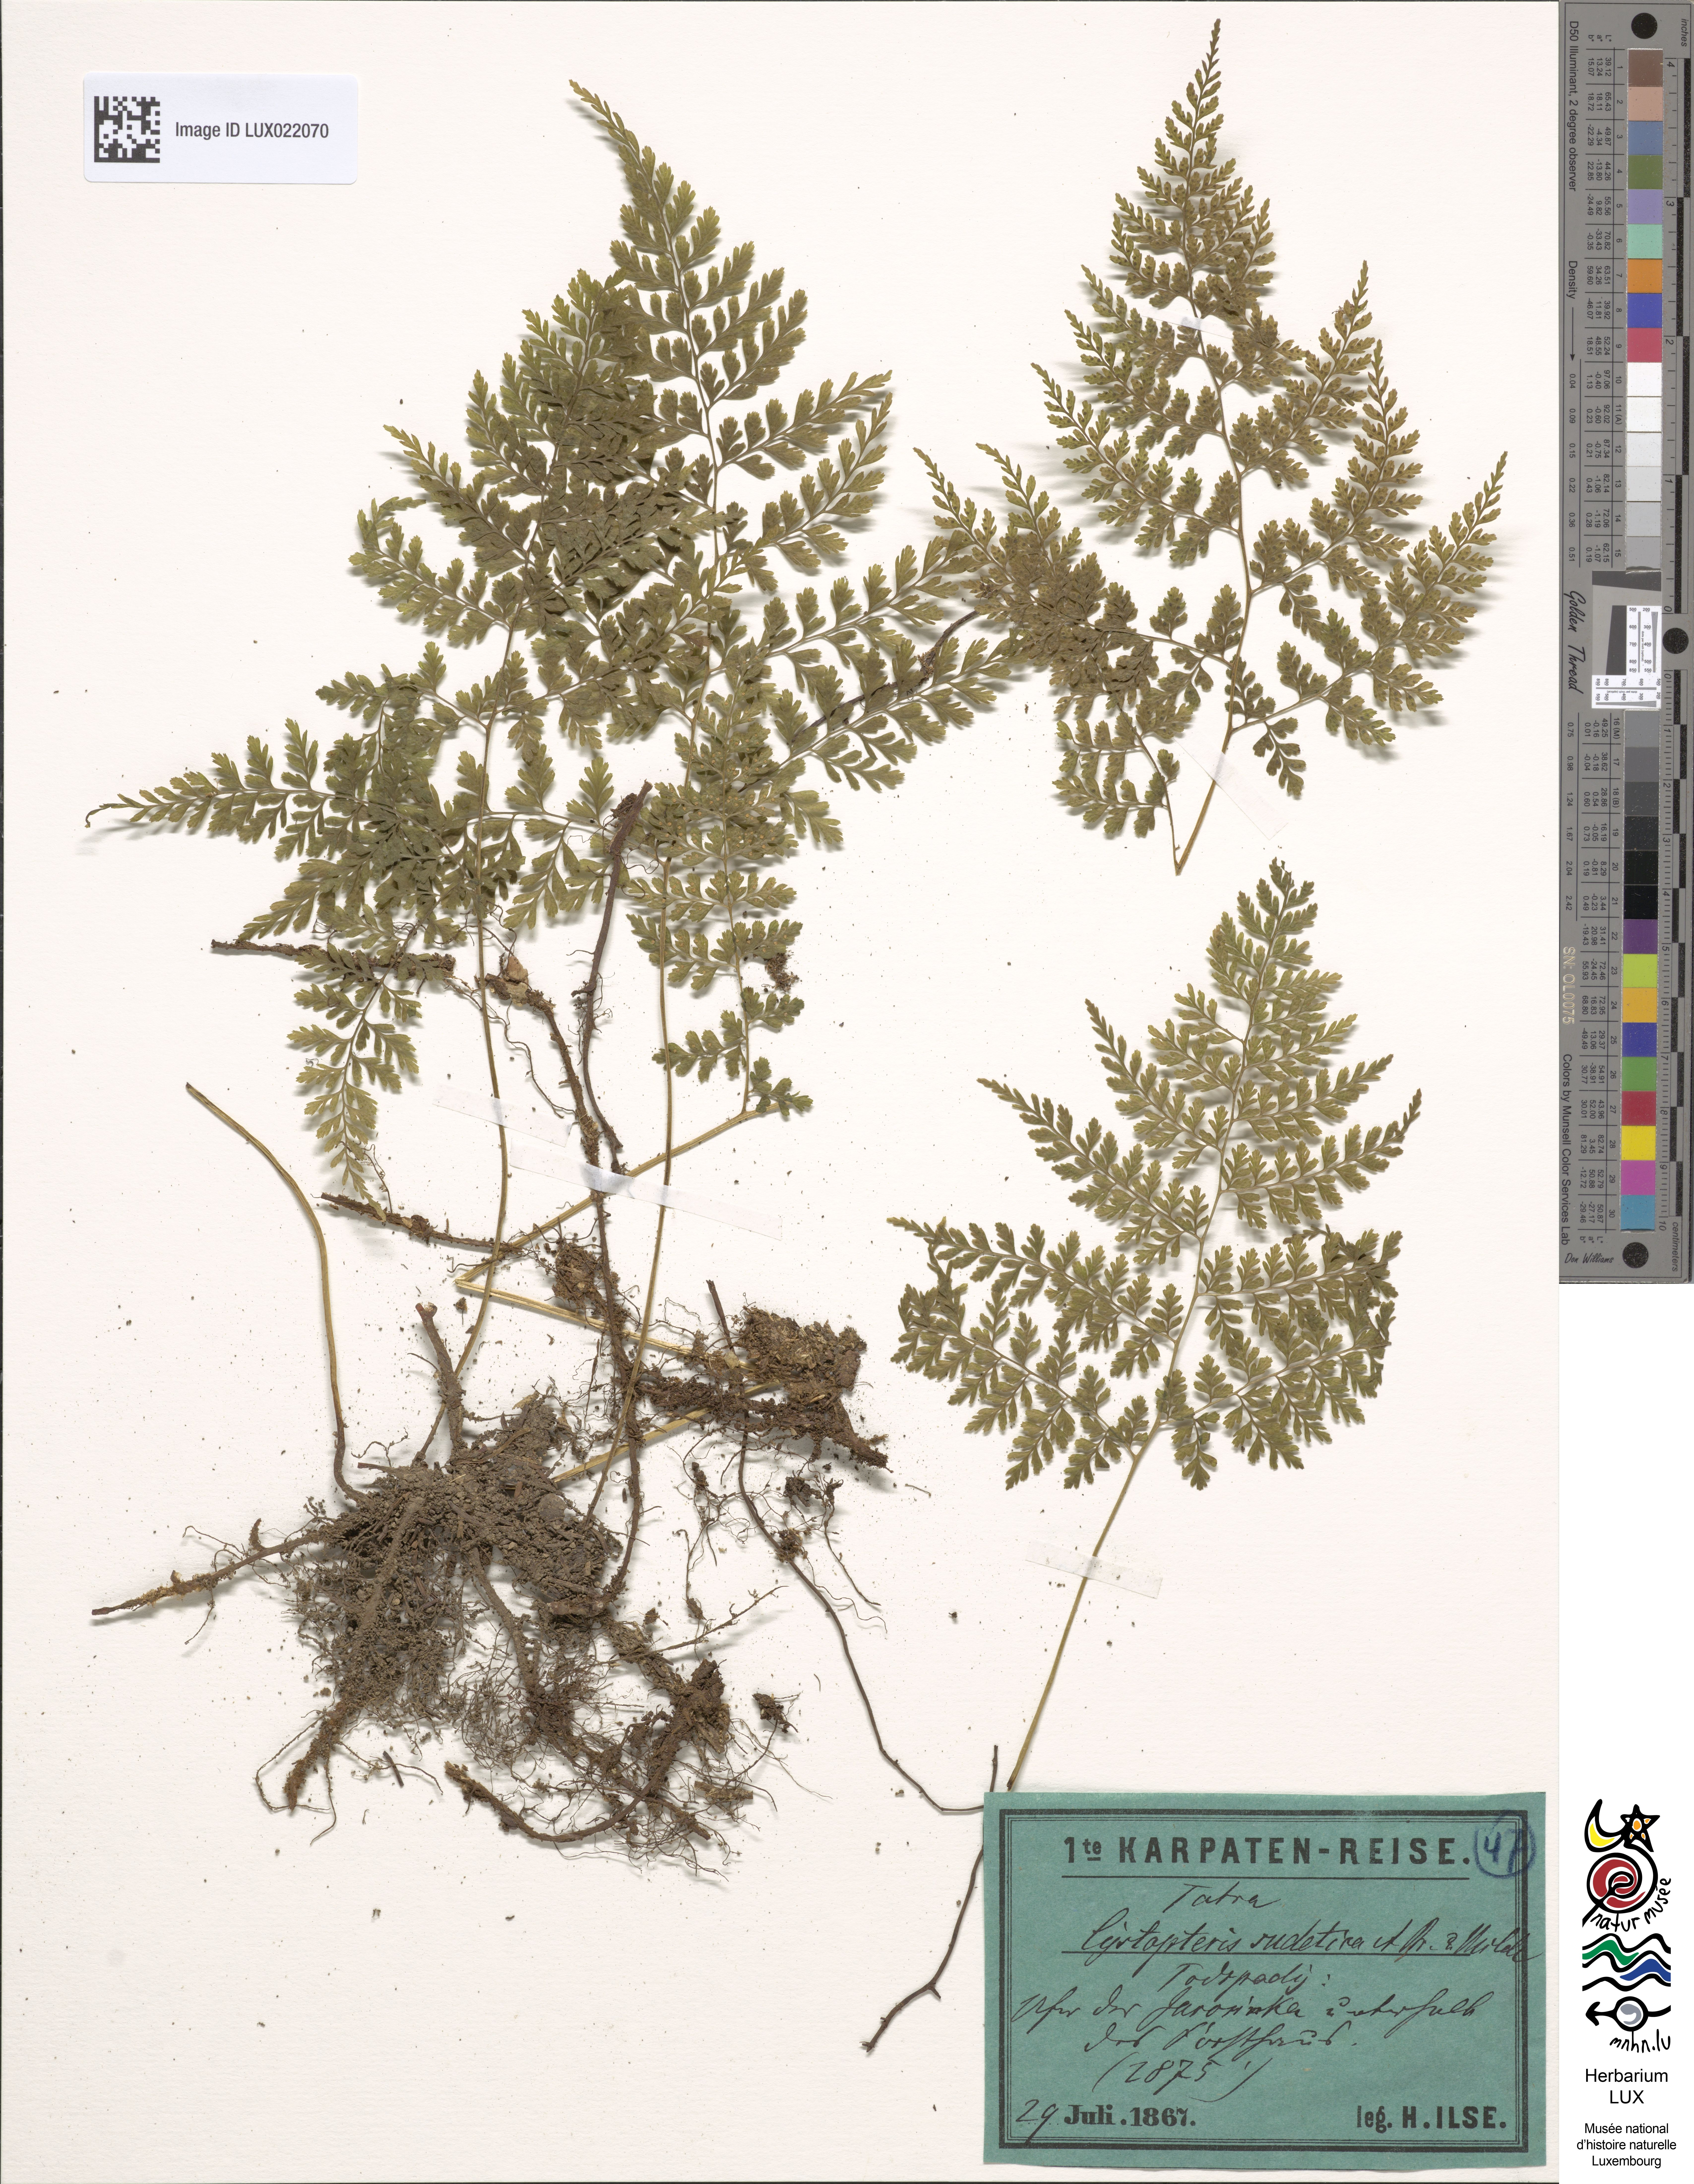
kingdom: Plantae
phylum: Tracheophyta
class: Polypodiopsida
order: Polypodiales
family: Cystopteridaceae
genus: Cystopteris
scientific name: Cystopteris sudetica
